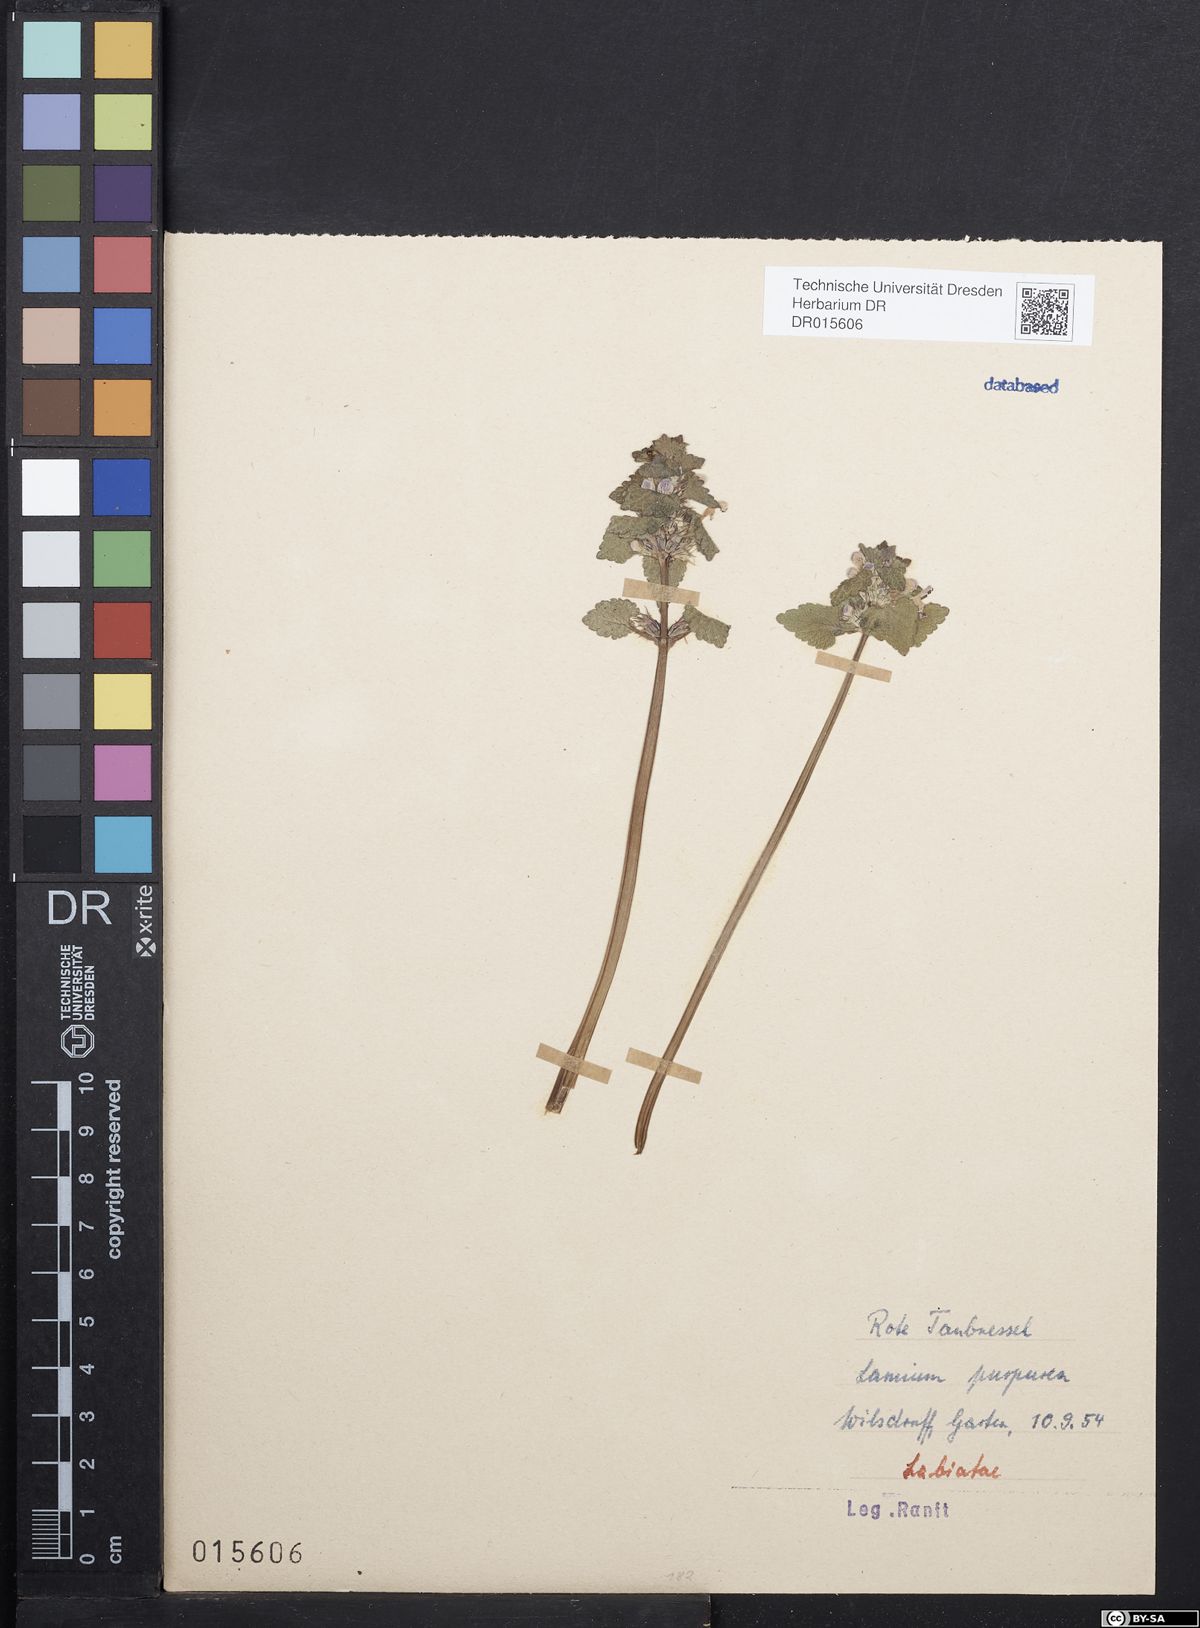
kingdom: Plantae
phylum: Tracheophyta
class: Magnoliopsida
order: Lamiales
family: Lamiaceae
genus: Lamium
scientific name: Lamium purpureum
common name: Red dead-nettle
